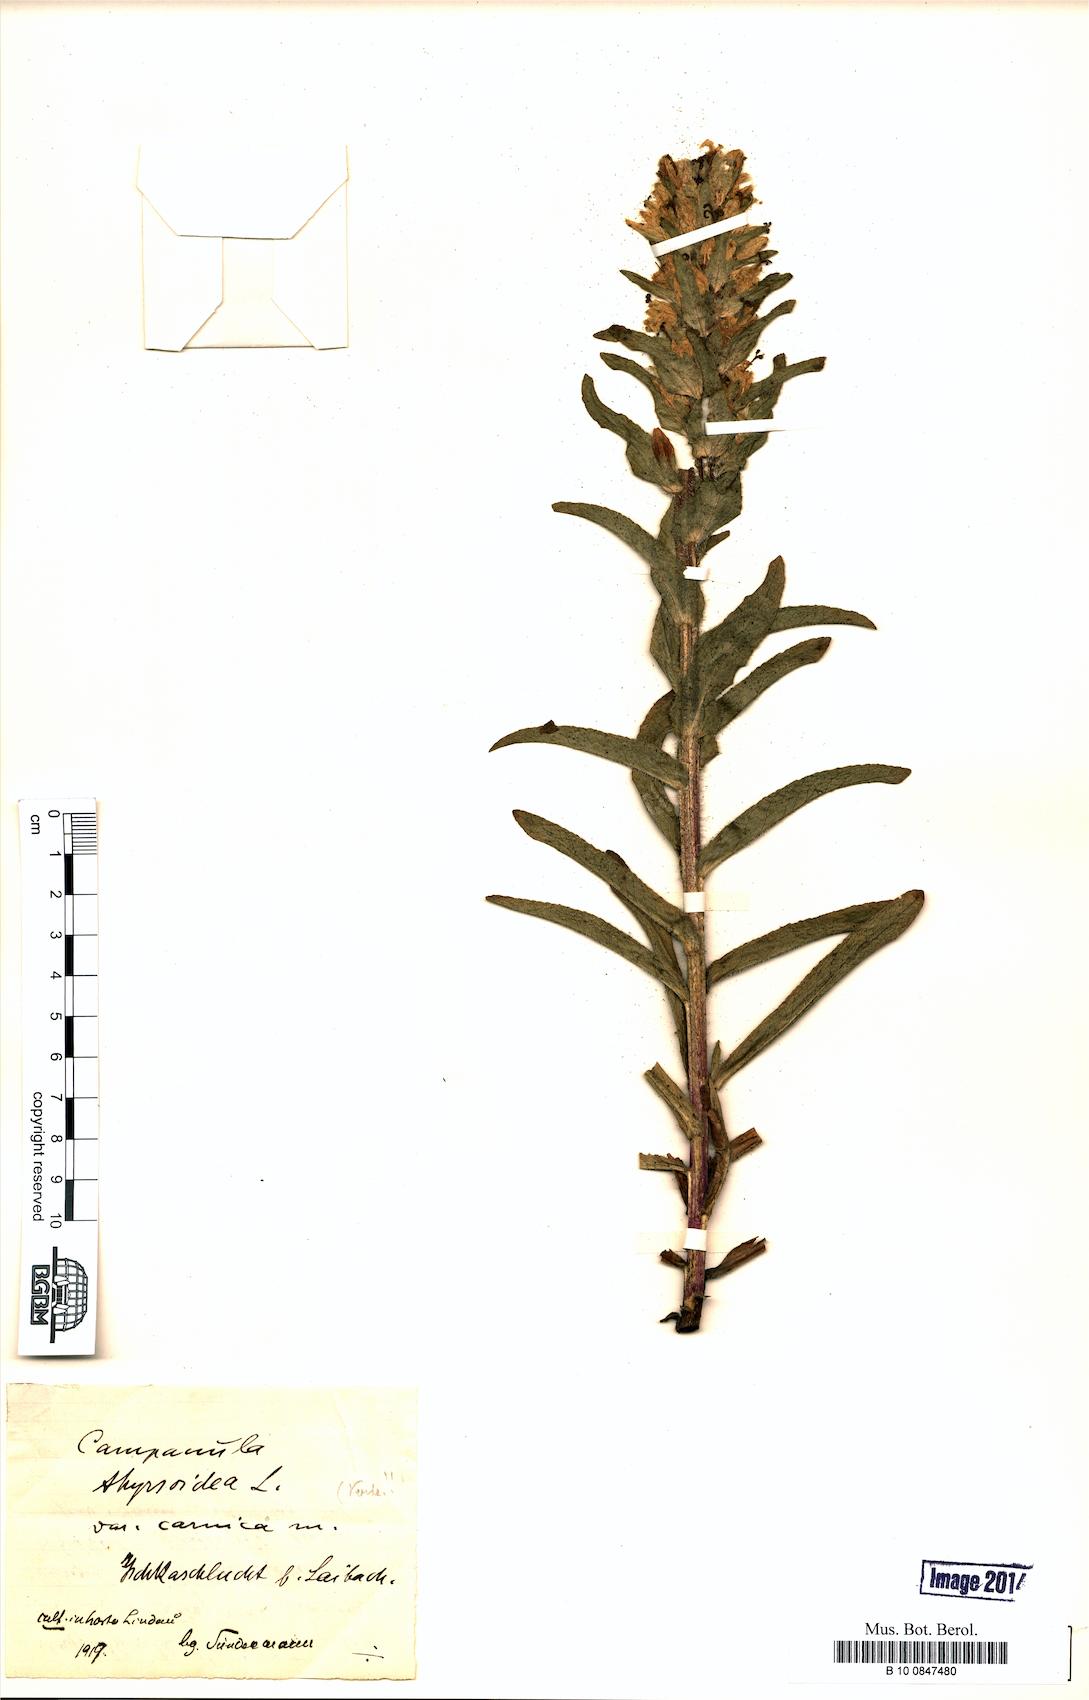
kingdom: Plantae
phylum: Tracheophyta
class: Magnoliopsida
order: Asterales
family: Campanulaceae
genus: Campanula
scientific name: Campanula thyrsoides
